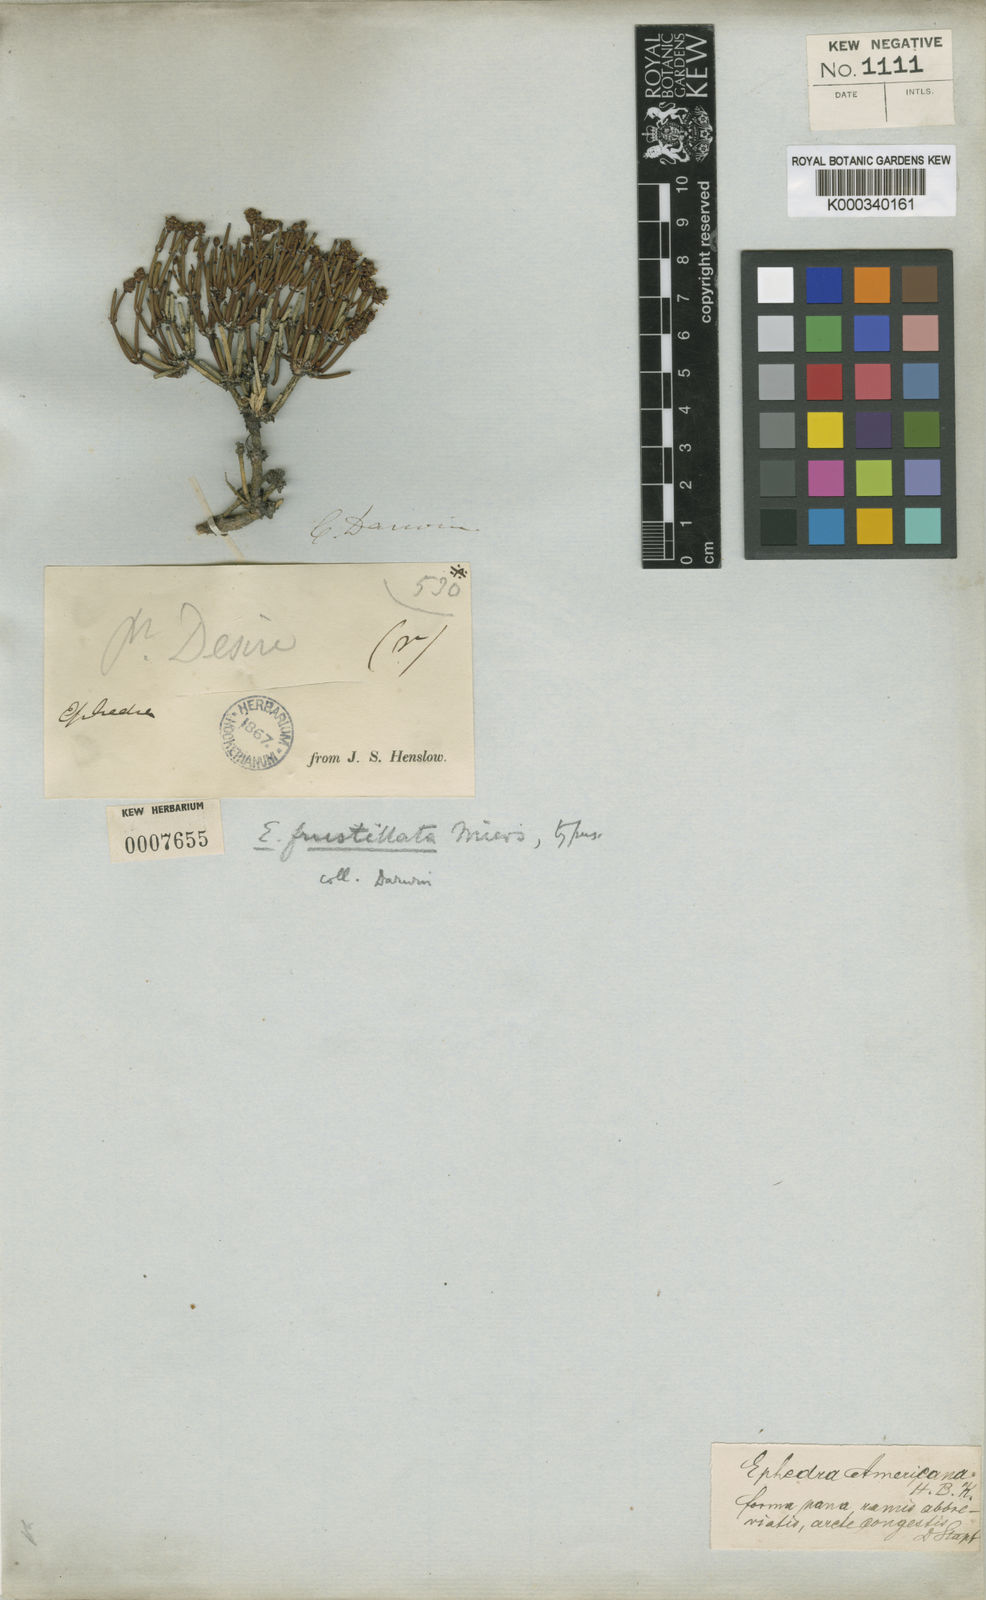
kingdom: Plantae
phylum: Tracheophyta
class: Gnetopsida
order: Ephedrales
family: Ephedraceae
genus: Ephedra
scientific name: Ephedra frustillata
